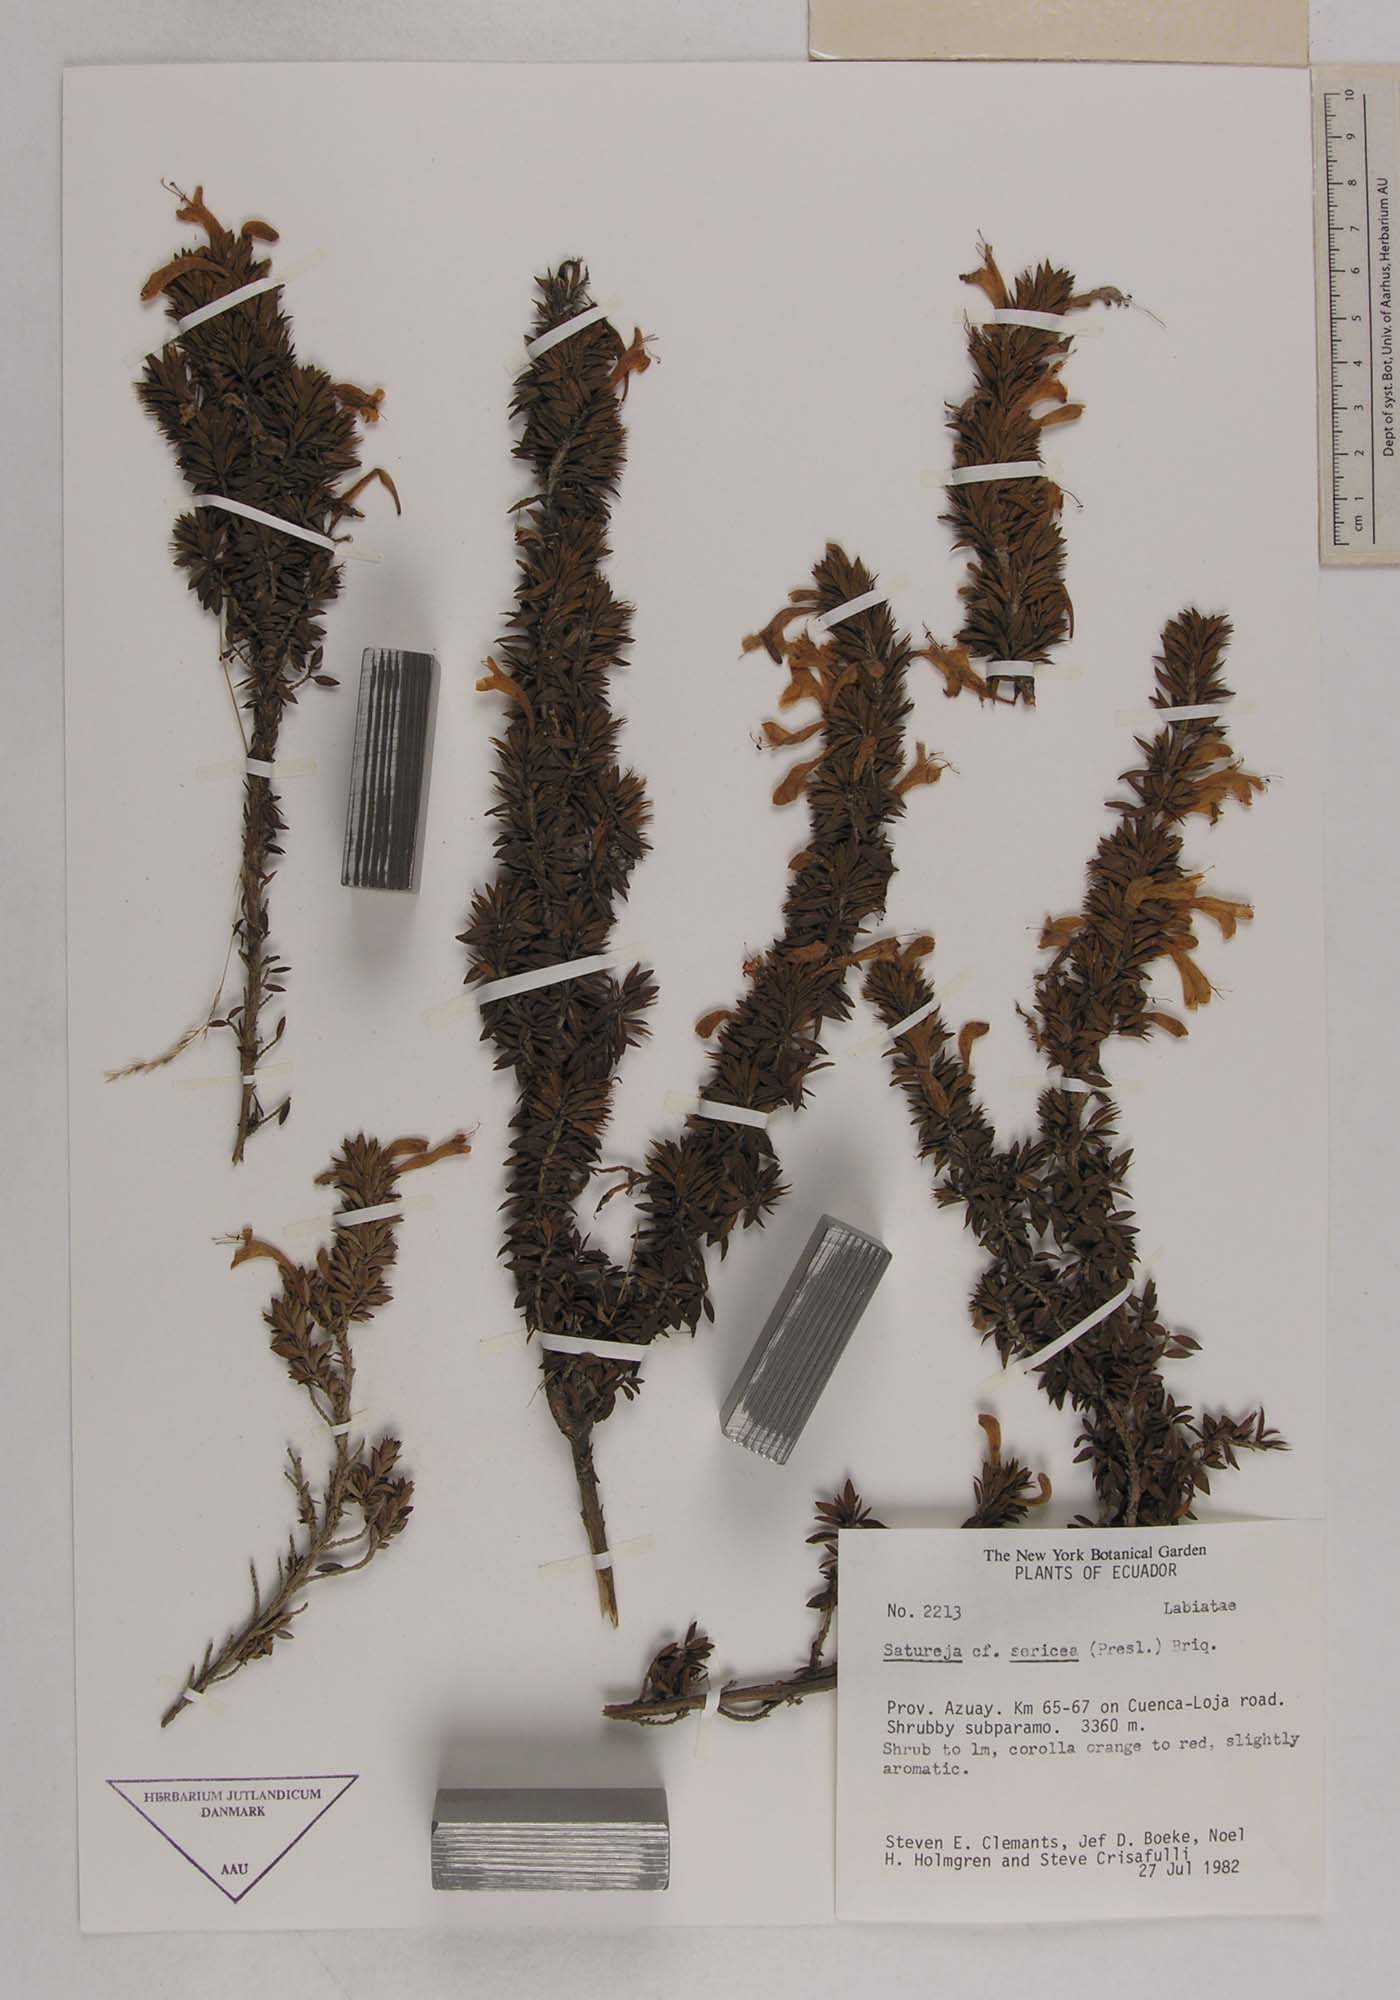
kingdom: Plantae
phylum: Tracheophyta
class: Magnoliopsida
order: Lamiales
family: Lamiaceae
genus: Clinopodium
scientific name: Clinopodium sericeum
